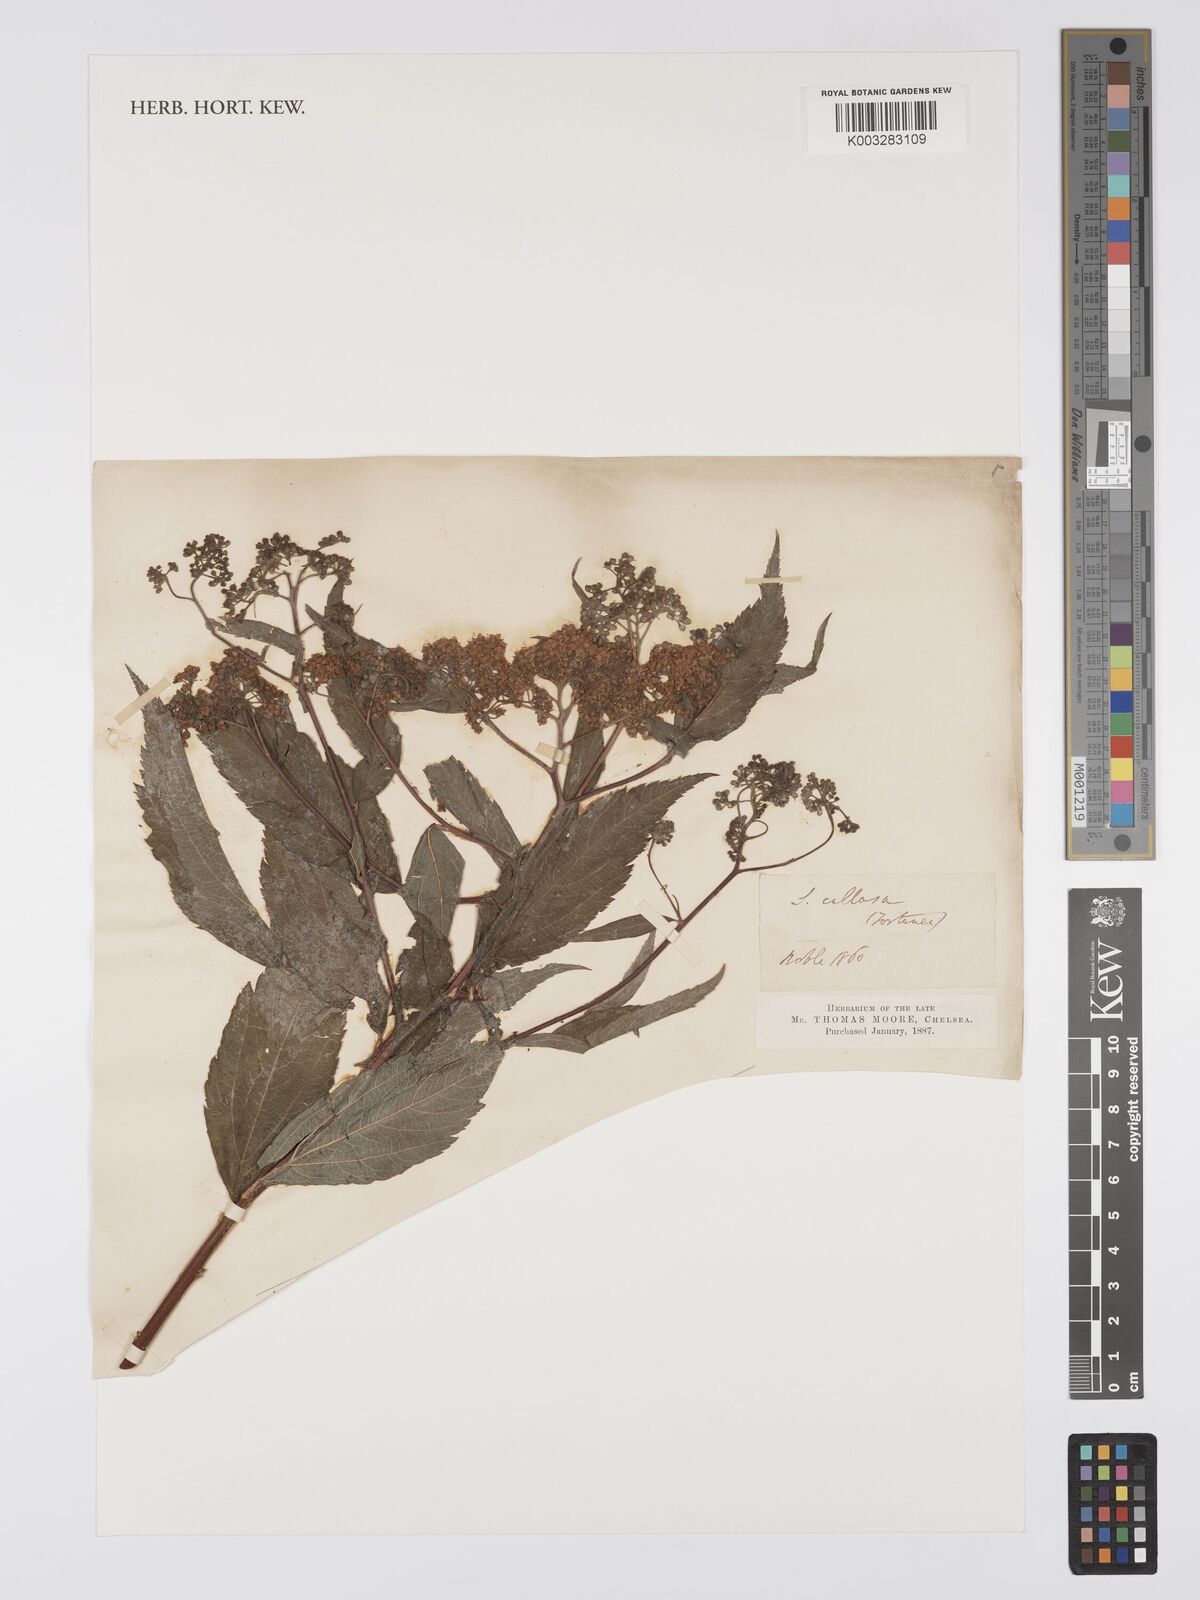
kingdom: Plantae
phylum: Tracheophyta
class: Magnoliopsida
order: Rosales
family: Rosaceae
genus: Spiraea
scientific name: Spiraea japonica
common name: Japanese spiraea
